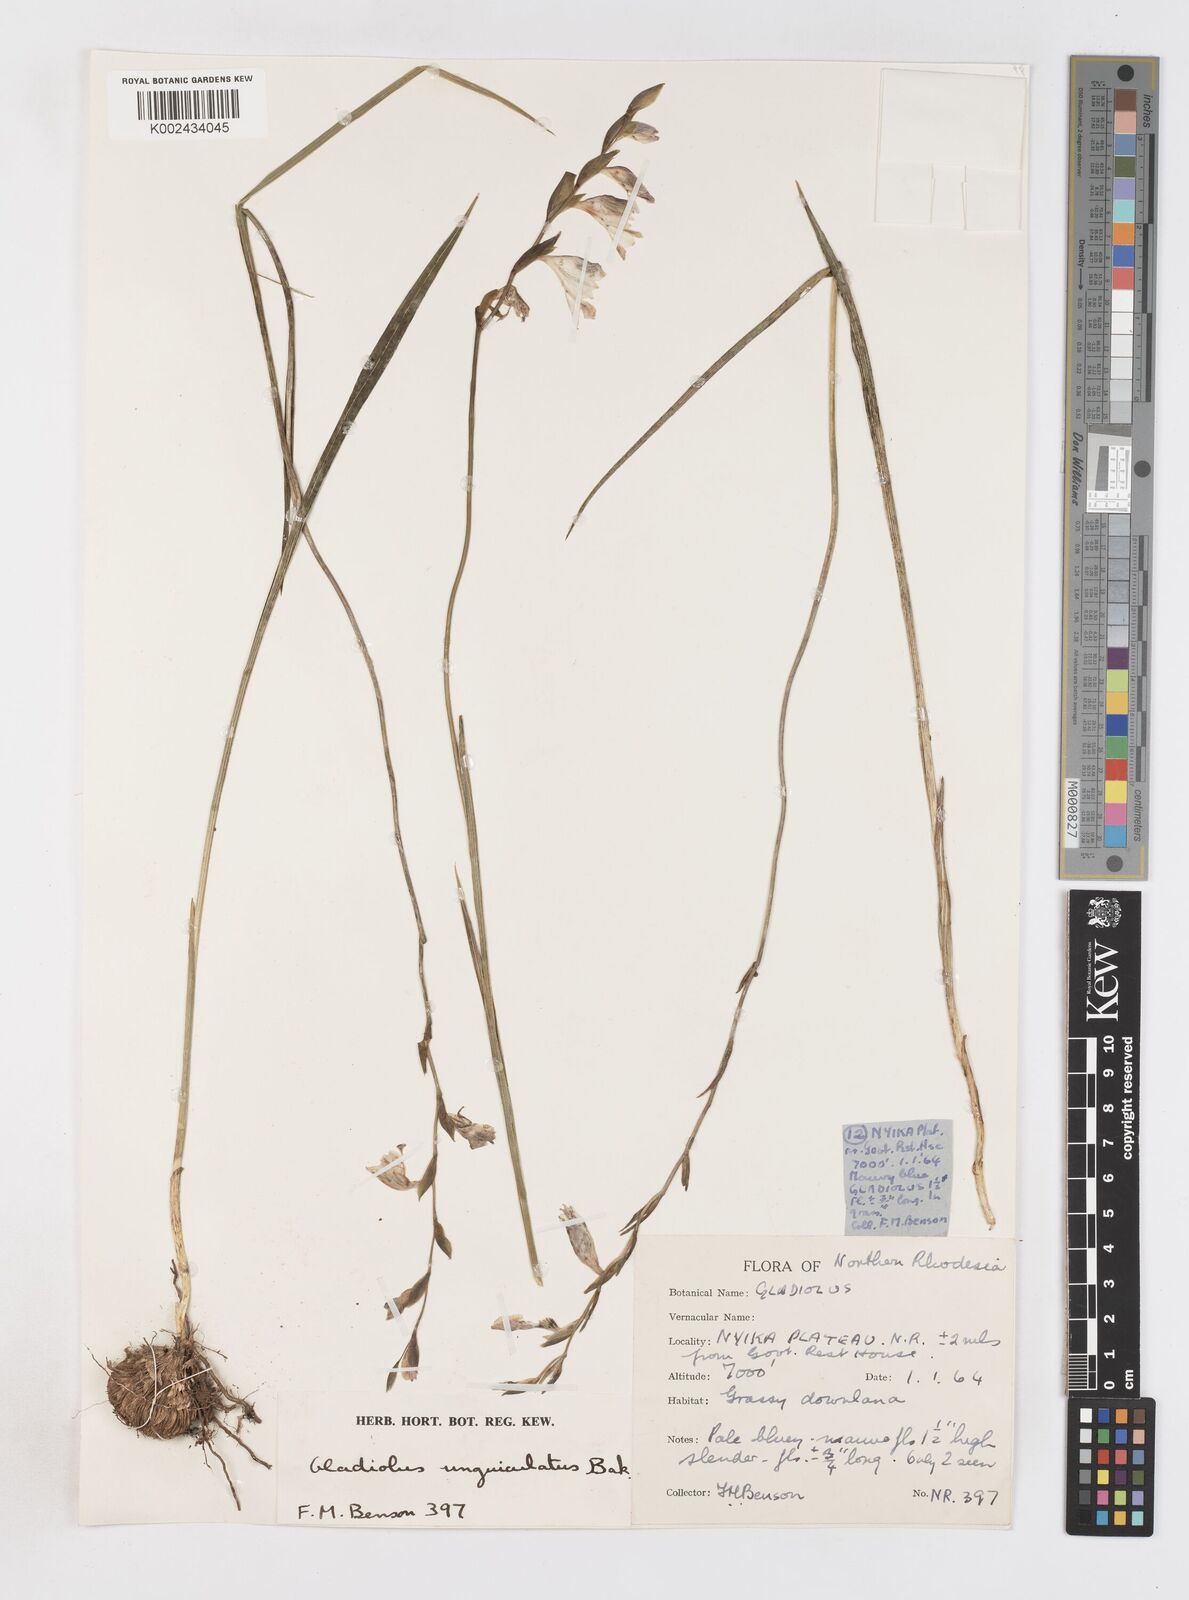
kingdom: Plantae
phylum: Tracheophyta
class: Liliopsida
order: Asparagales
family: Iridaceae
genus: Gladiolus
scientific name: Gladiolus atropurpureus
